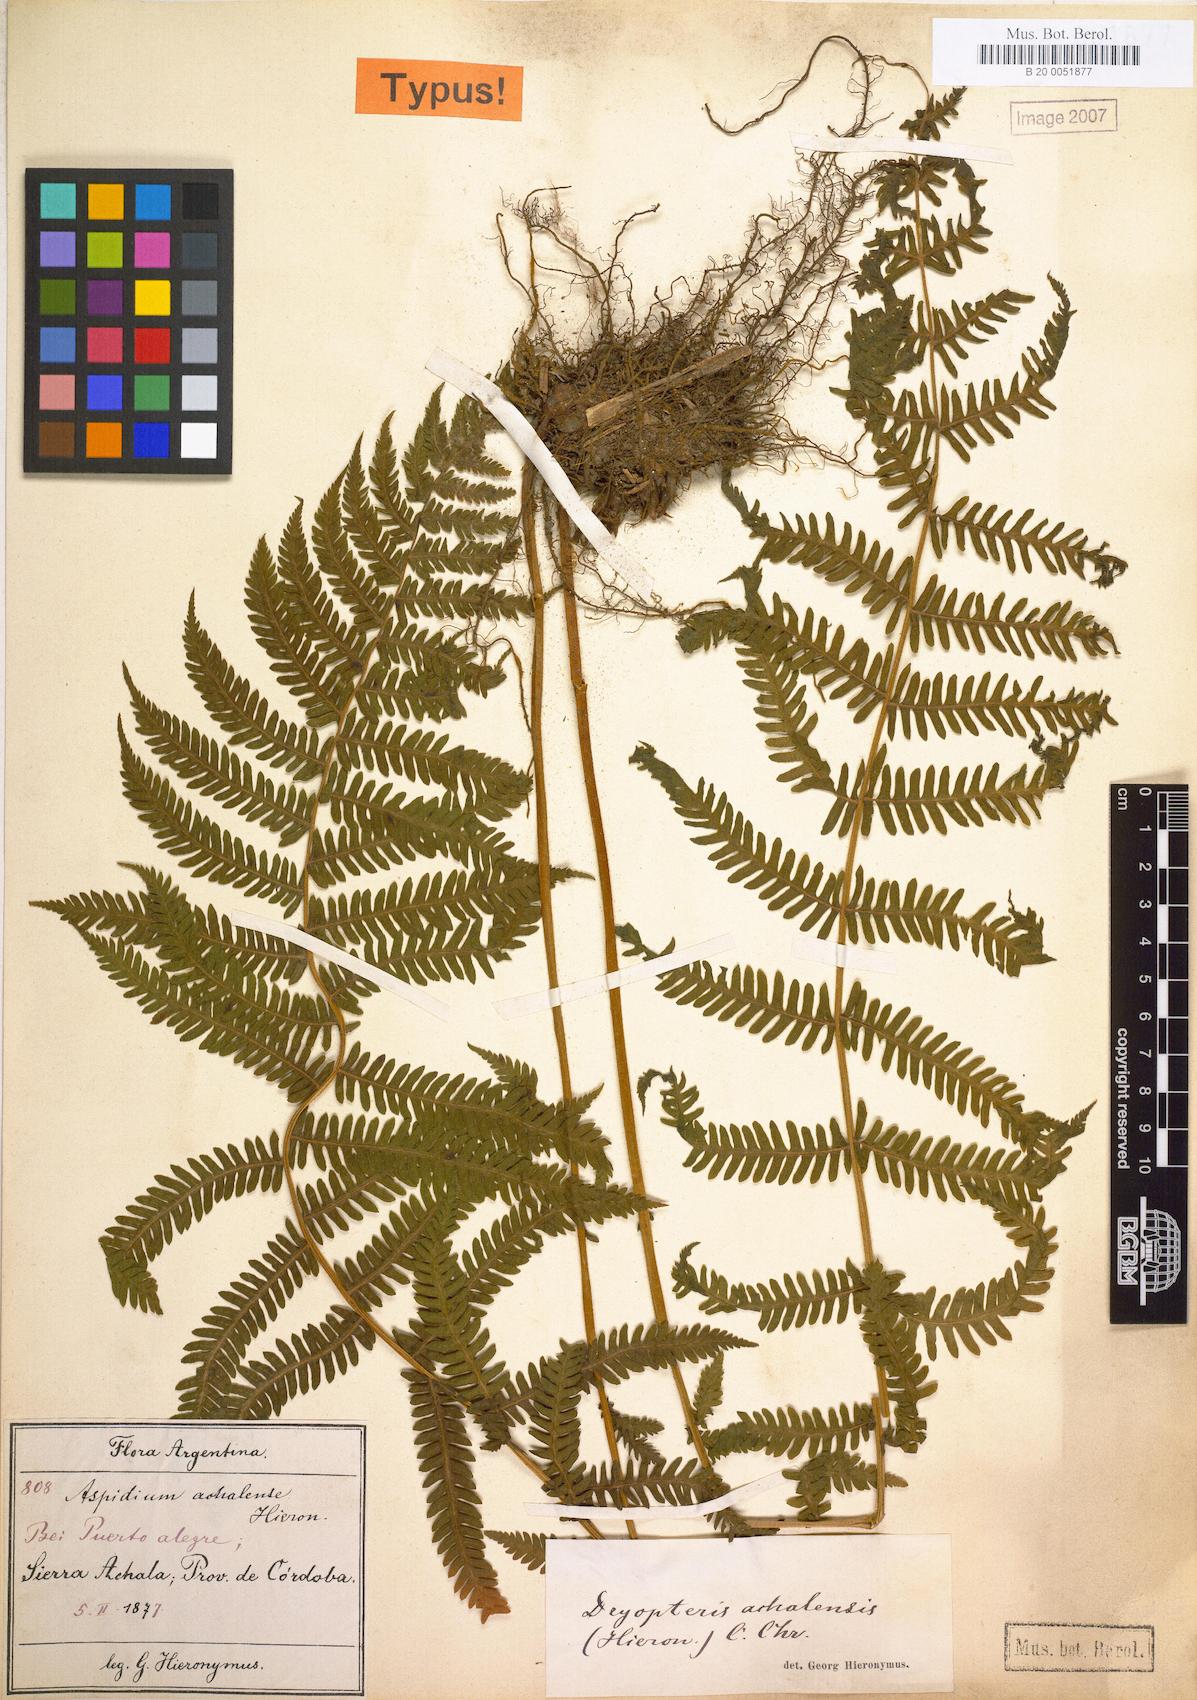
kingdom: Plantae
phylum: Tracheophyta
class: Polypodiopsida
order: Polypodiales
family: Thelypteridaceae
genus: Amauropelta
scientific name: Amauropelta achalensis
